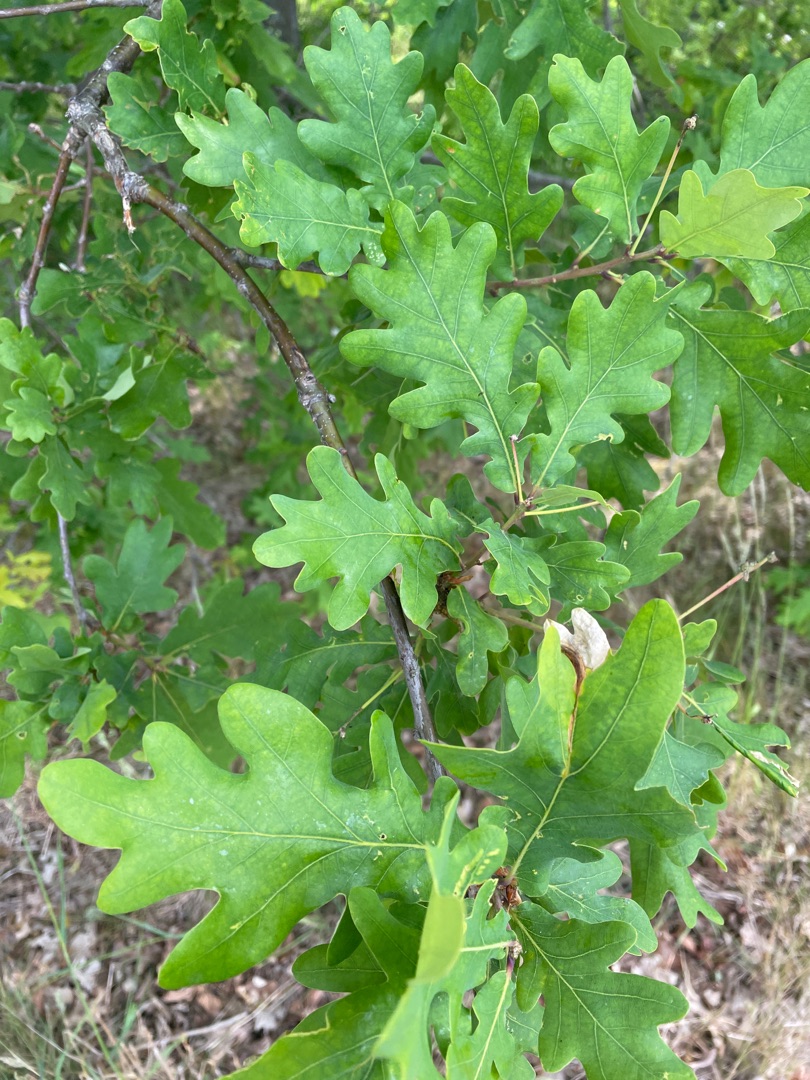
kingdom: Plantae
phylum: Tracheophyta
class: Magnoliopsida
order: Fagales
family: Fagaceae
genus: Quercus
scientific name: Quercus robur
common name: Stilk-eg/almindelig eg
